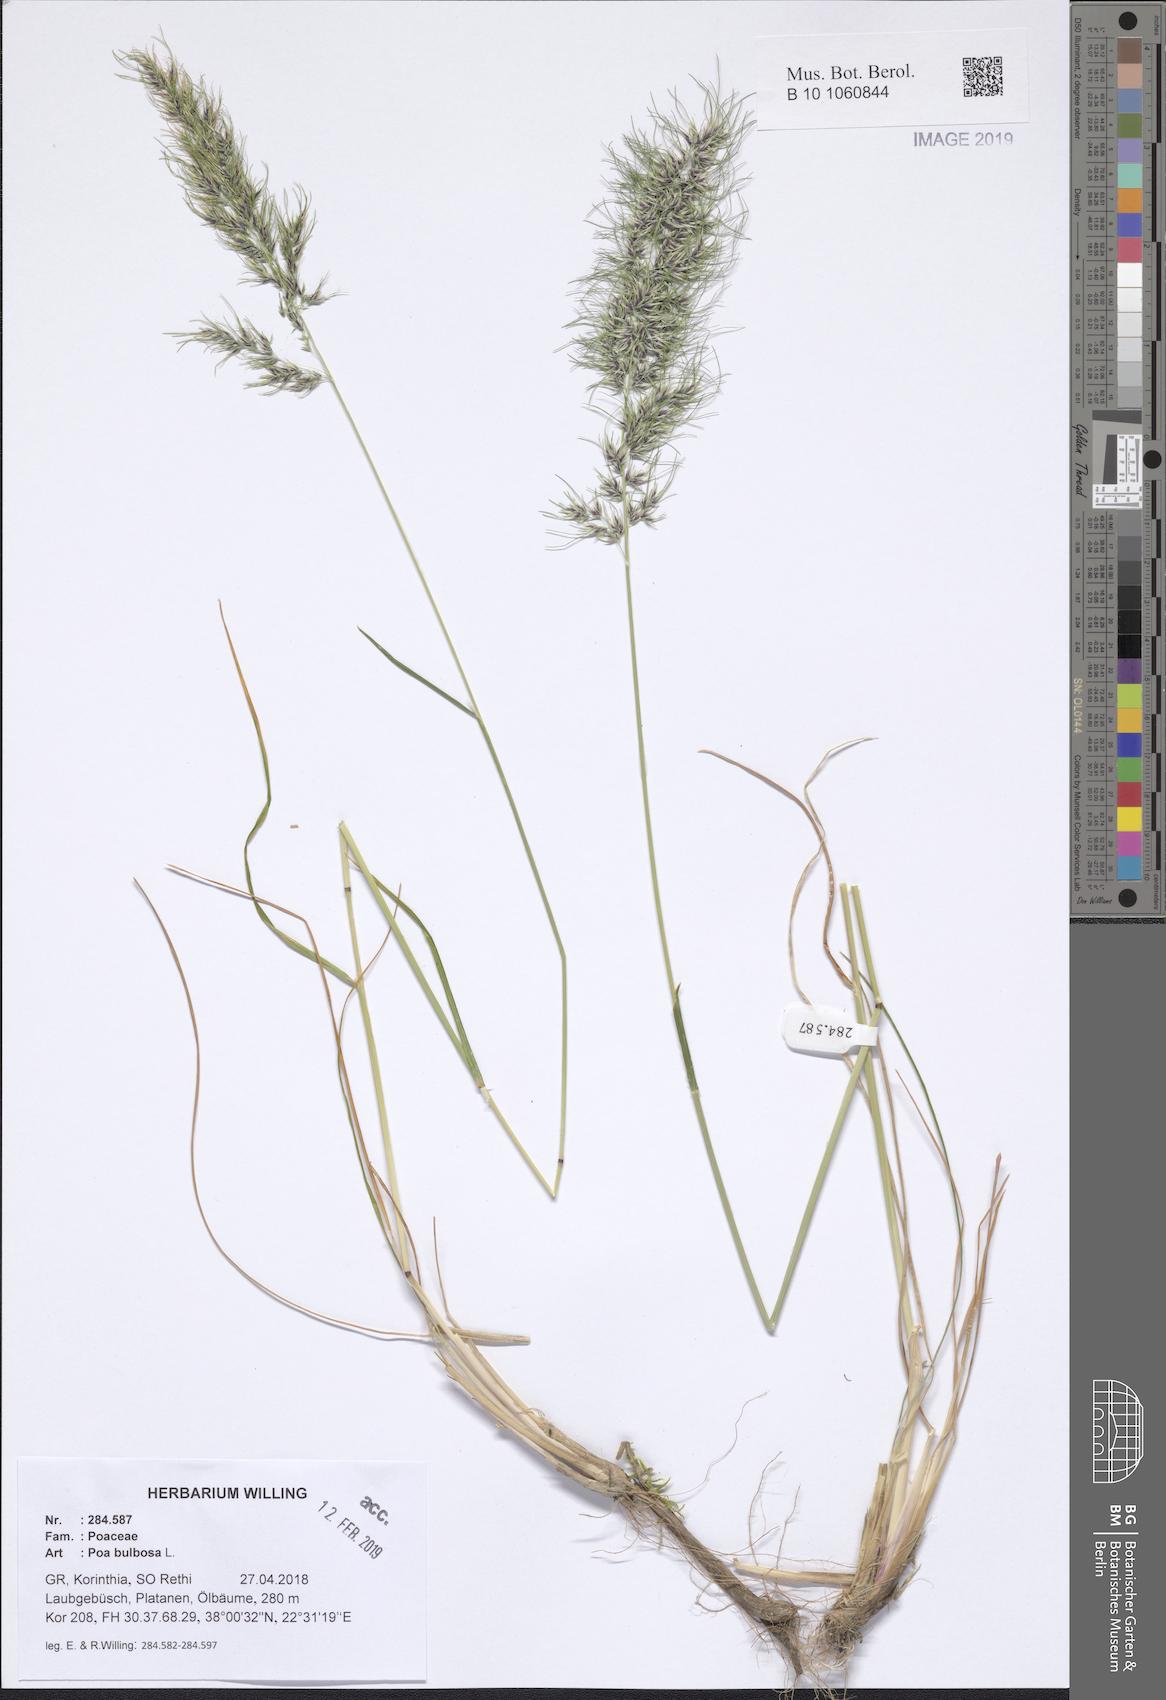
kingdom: Plantae
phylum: Tracheophyta
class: Liliopsida
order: Poales
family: Poaceae
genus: Poa
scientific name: Poa bulbosa
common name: Bulbous bluegrass
